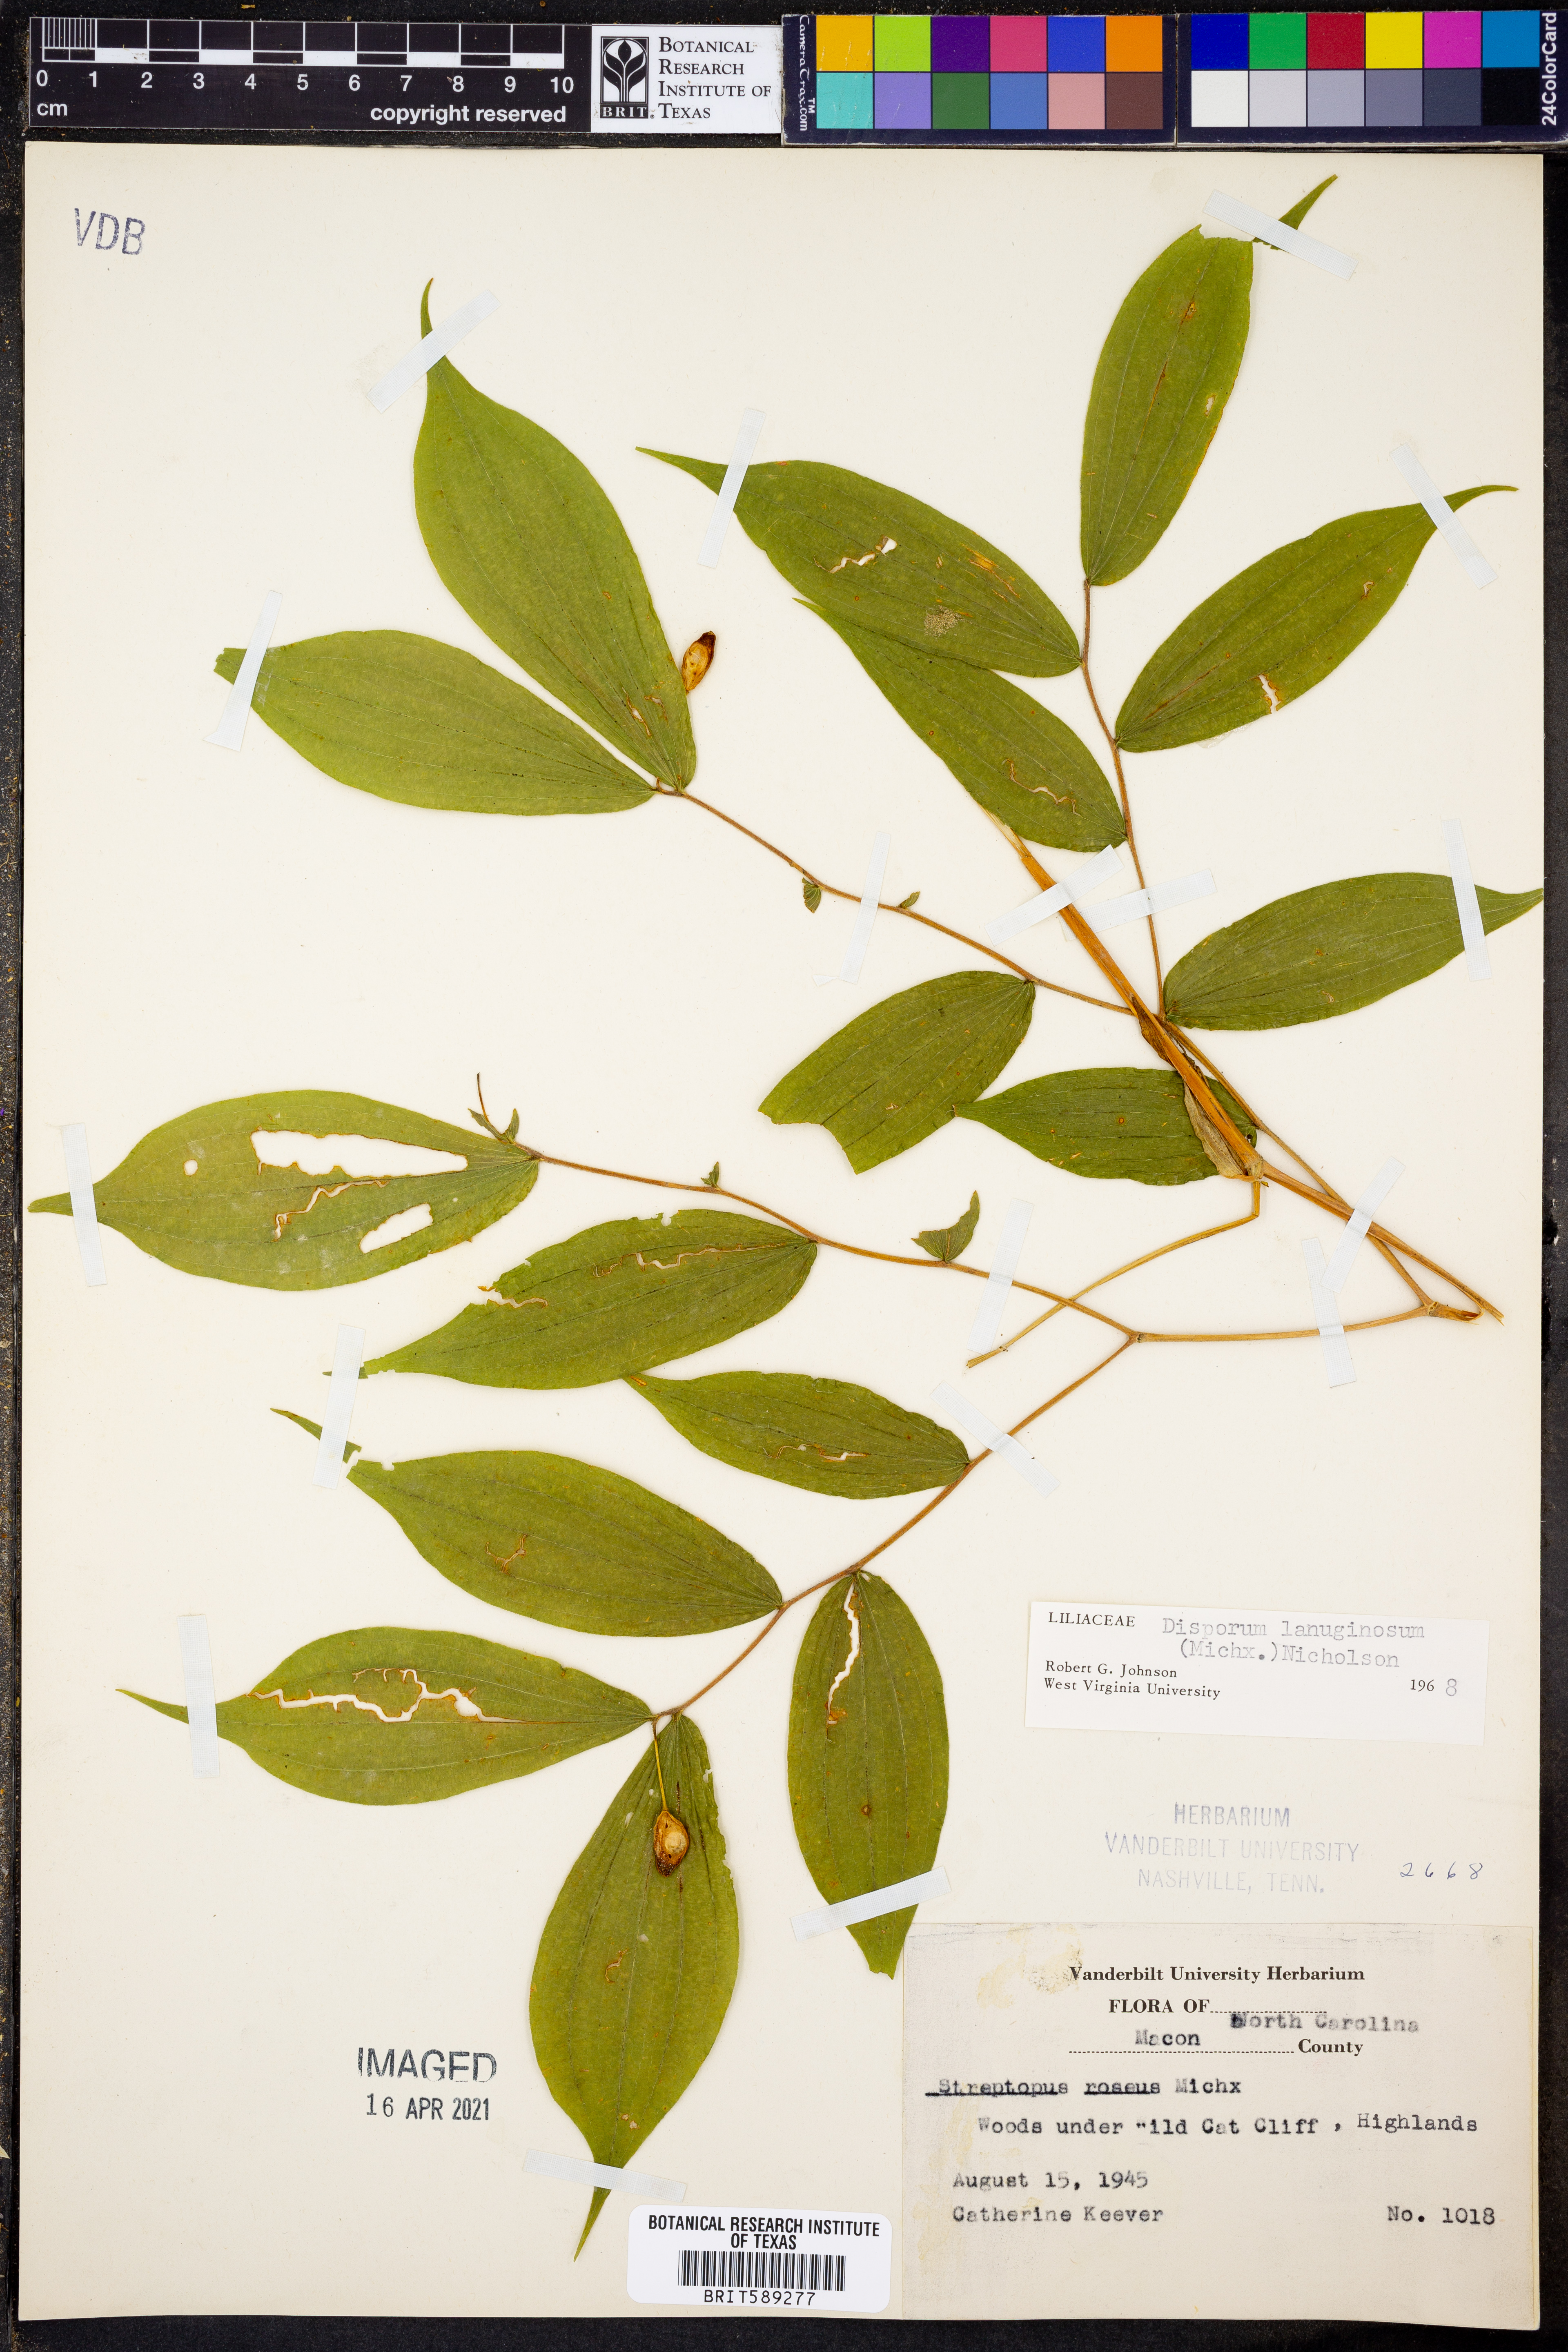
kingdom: Plantae
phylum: Tracheophyta
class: Liliopsida
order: Liliales
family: Liliaceae
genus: Prosartes
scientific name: Prosartes lanuginosa
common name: Hairy mandarin
